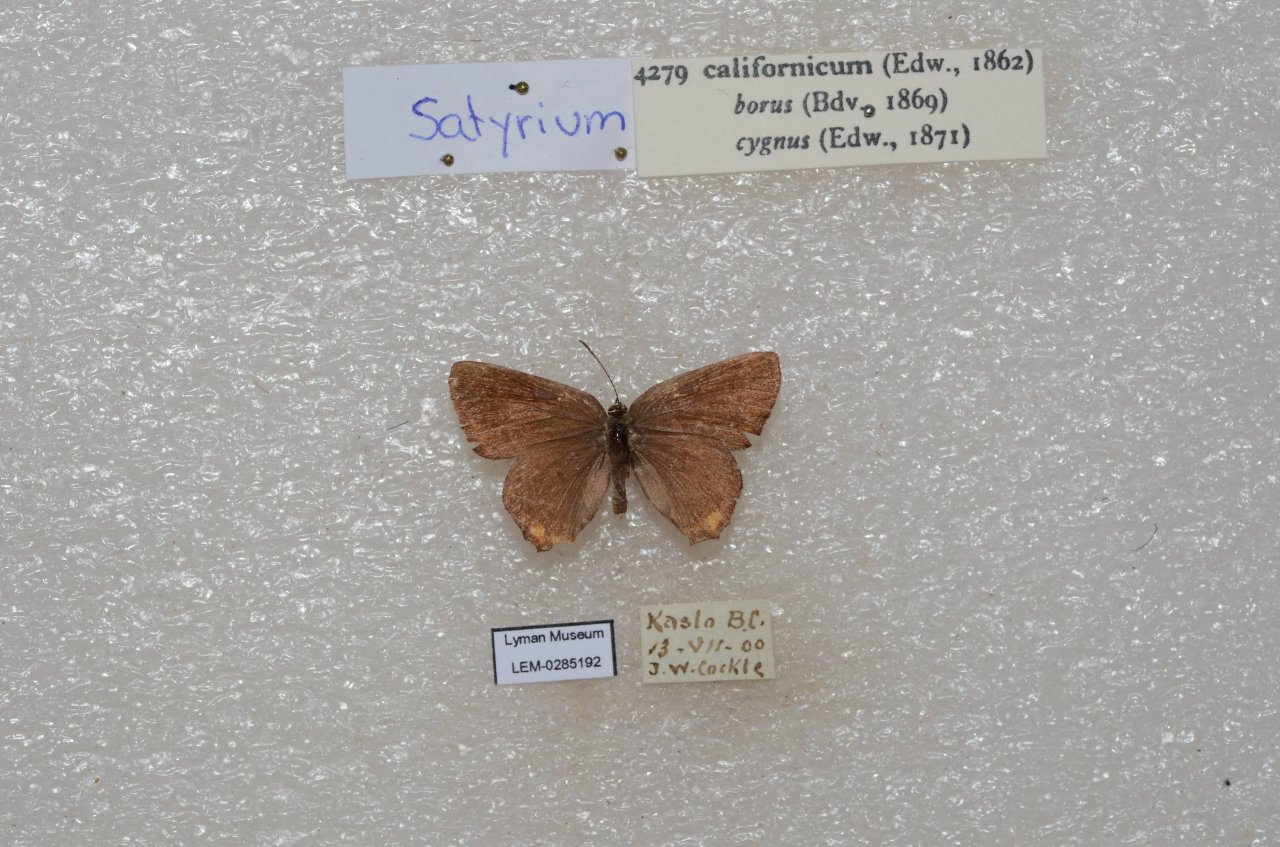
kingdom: Animalia
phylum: Arthropoda
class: Insecta
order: Lepidoptera
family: Lycaenidae
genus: Strymon
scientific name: Strymon acadica
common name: California Hairstreak
